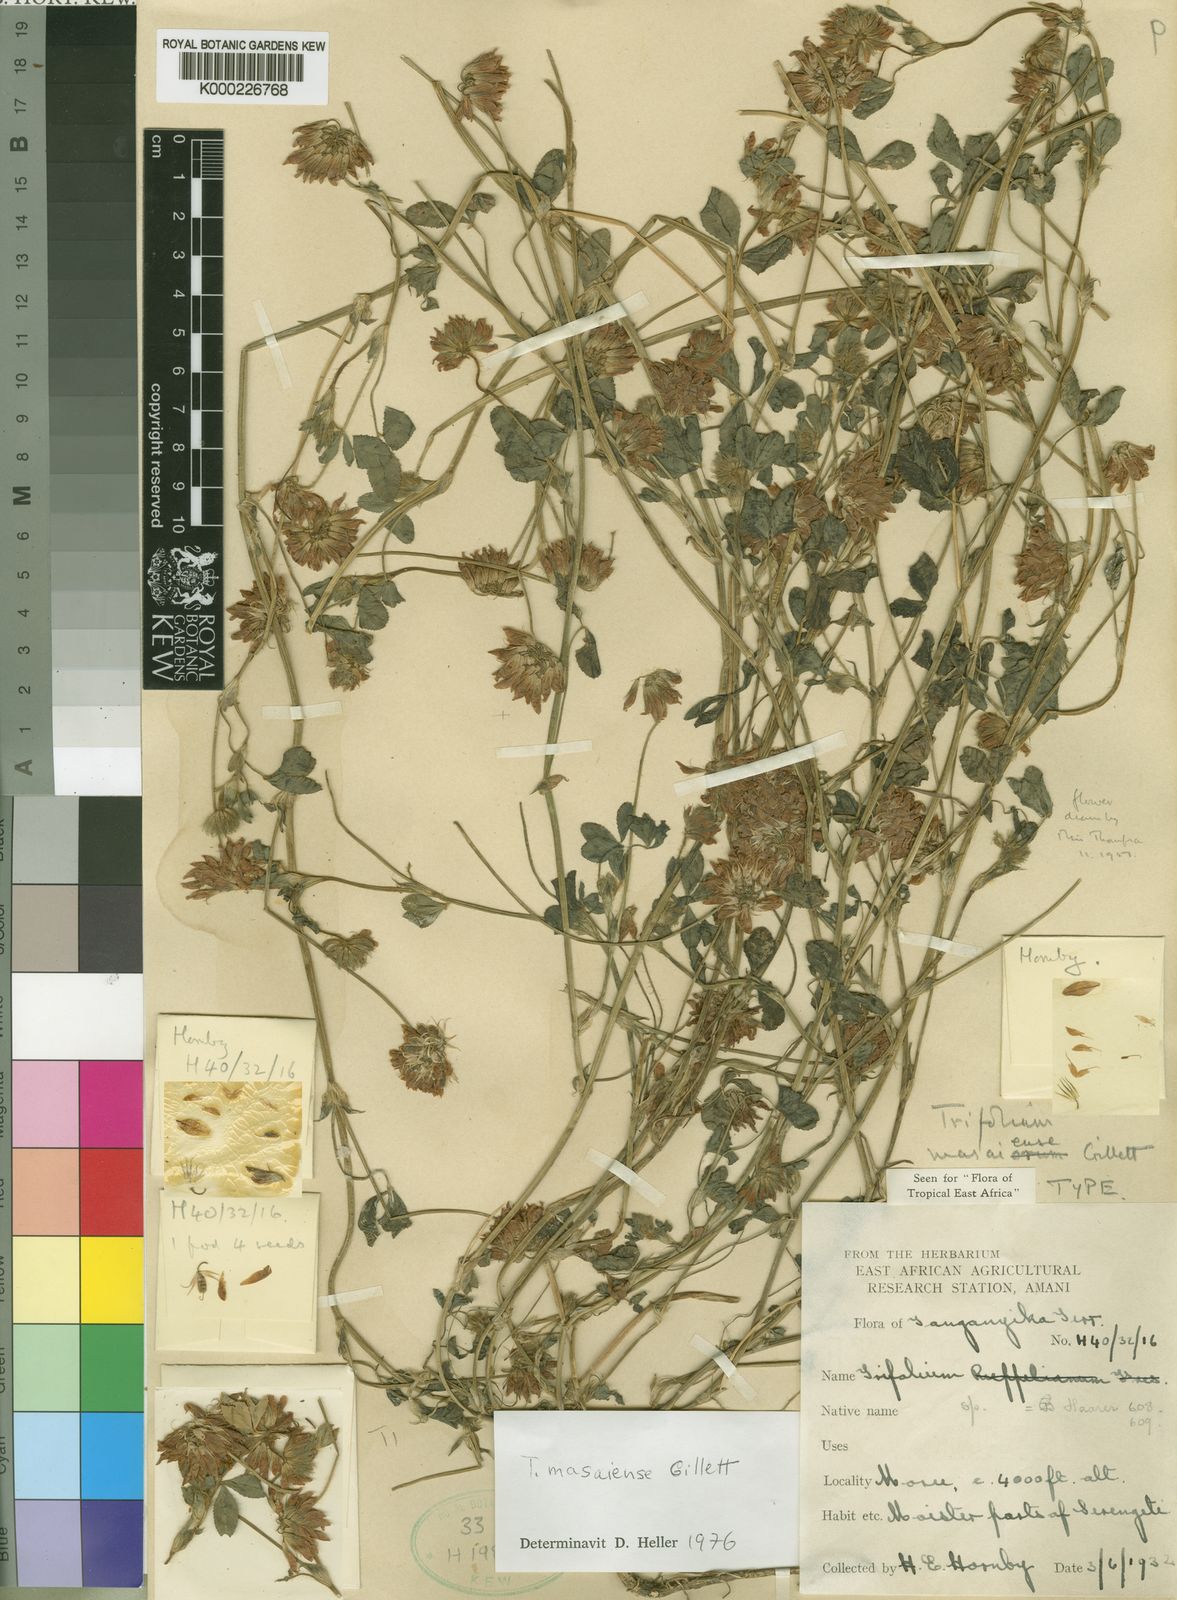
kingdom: Plantae
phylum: Tracheophyta
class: Magnoliopsida
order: Fabales
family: Fabaceae
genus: Trifolium
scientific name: Trifolium masaiense
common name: Masai clover
